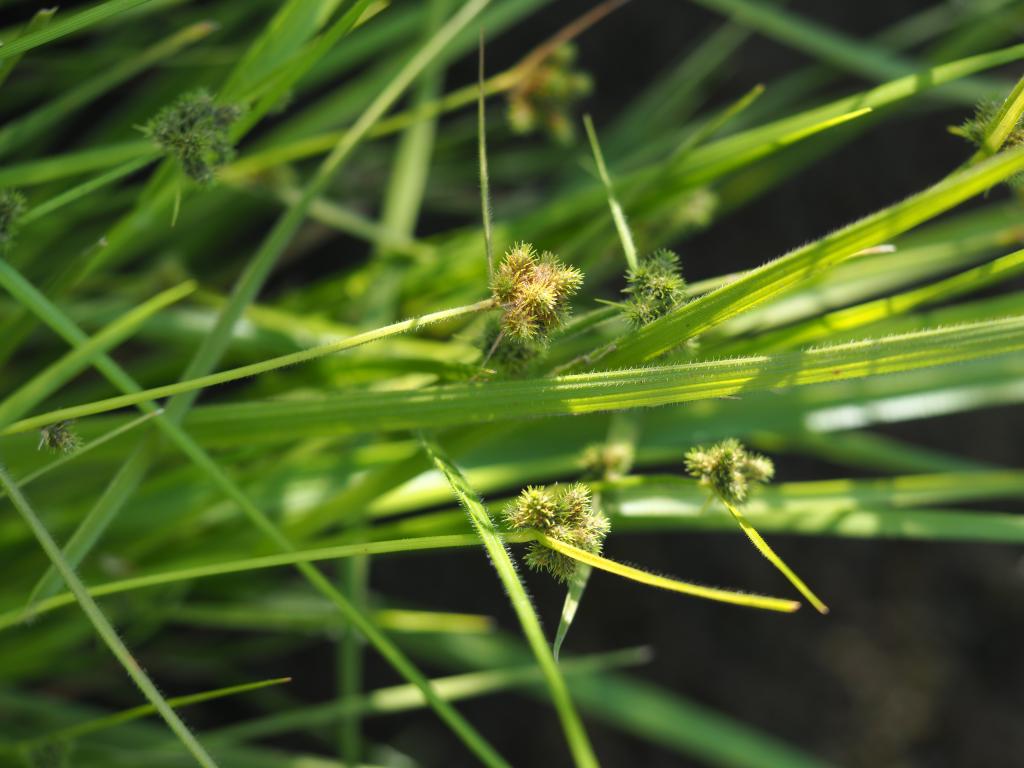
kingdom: Plantae
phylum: Tracheophyta
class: Liliopsida
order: Poales
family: Cyperaceae
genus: Fuirena
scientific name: Fuirena ciliaris
